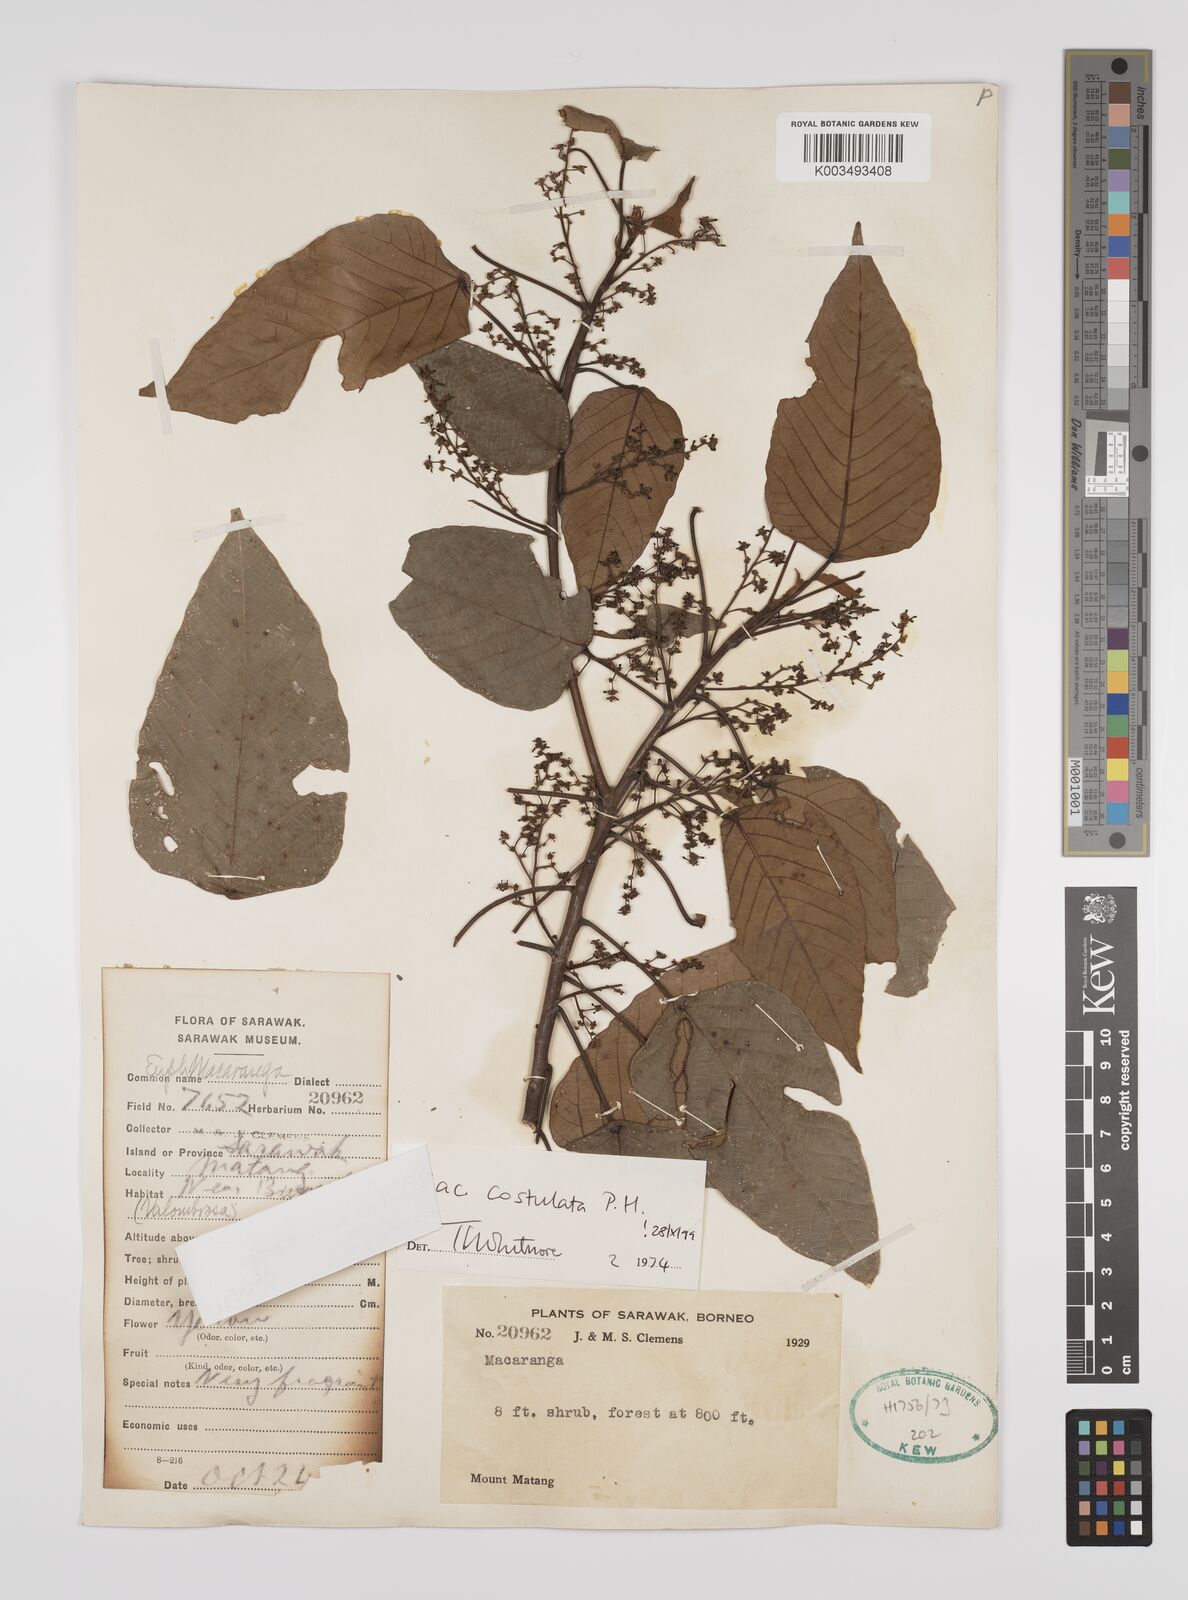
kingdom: Plantae
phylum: Tracheophyta
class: Magnoliopsida
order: Malpighiales
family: Euphorbiaceae
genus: Macaranga
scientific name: Macaranga costulata
